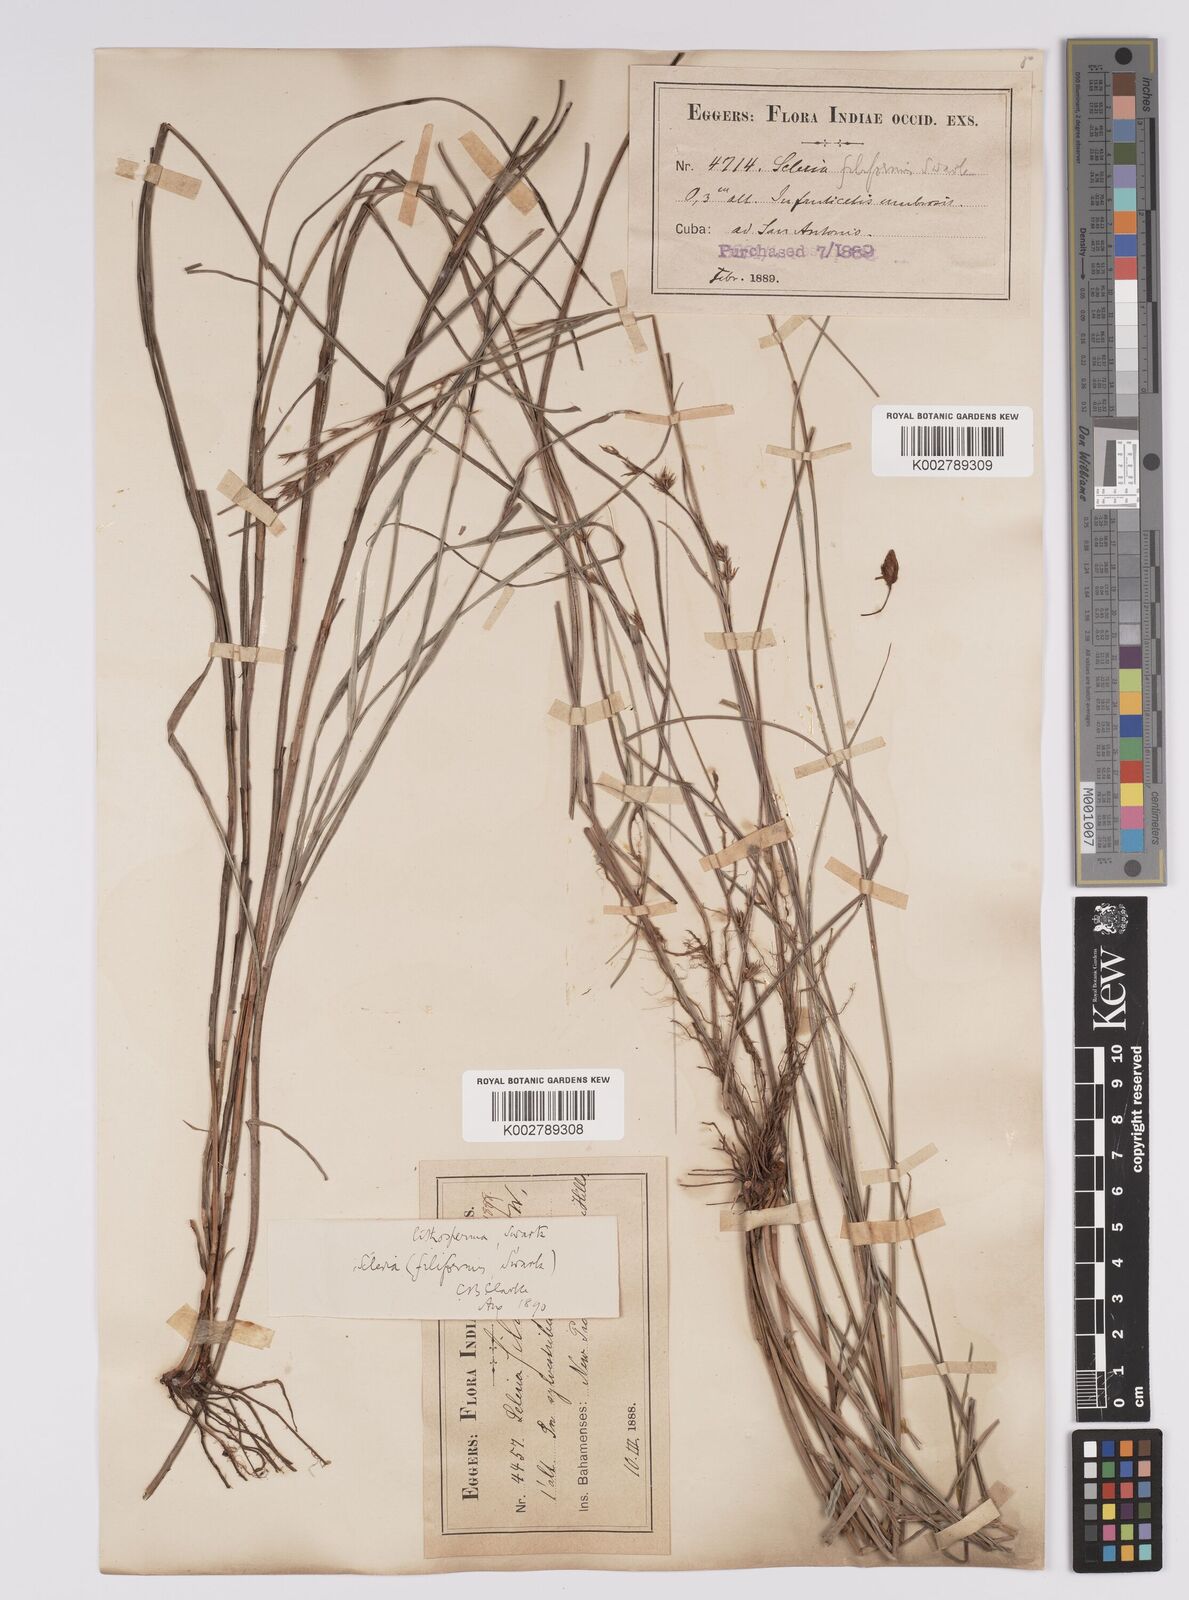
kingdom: Plantae
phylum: Tracheophyta
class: Liliopsida
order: Poales
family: Cyperaceae
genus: Scleria
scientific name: Scleria lithosperma
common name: Florida keys nut-rush
